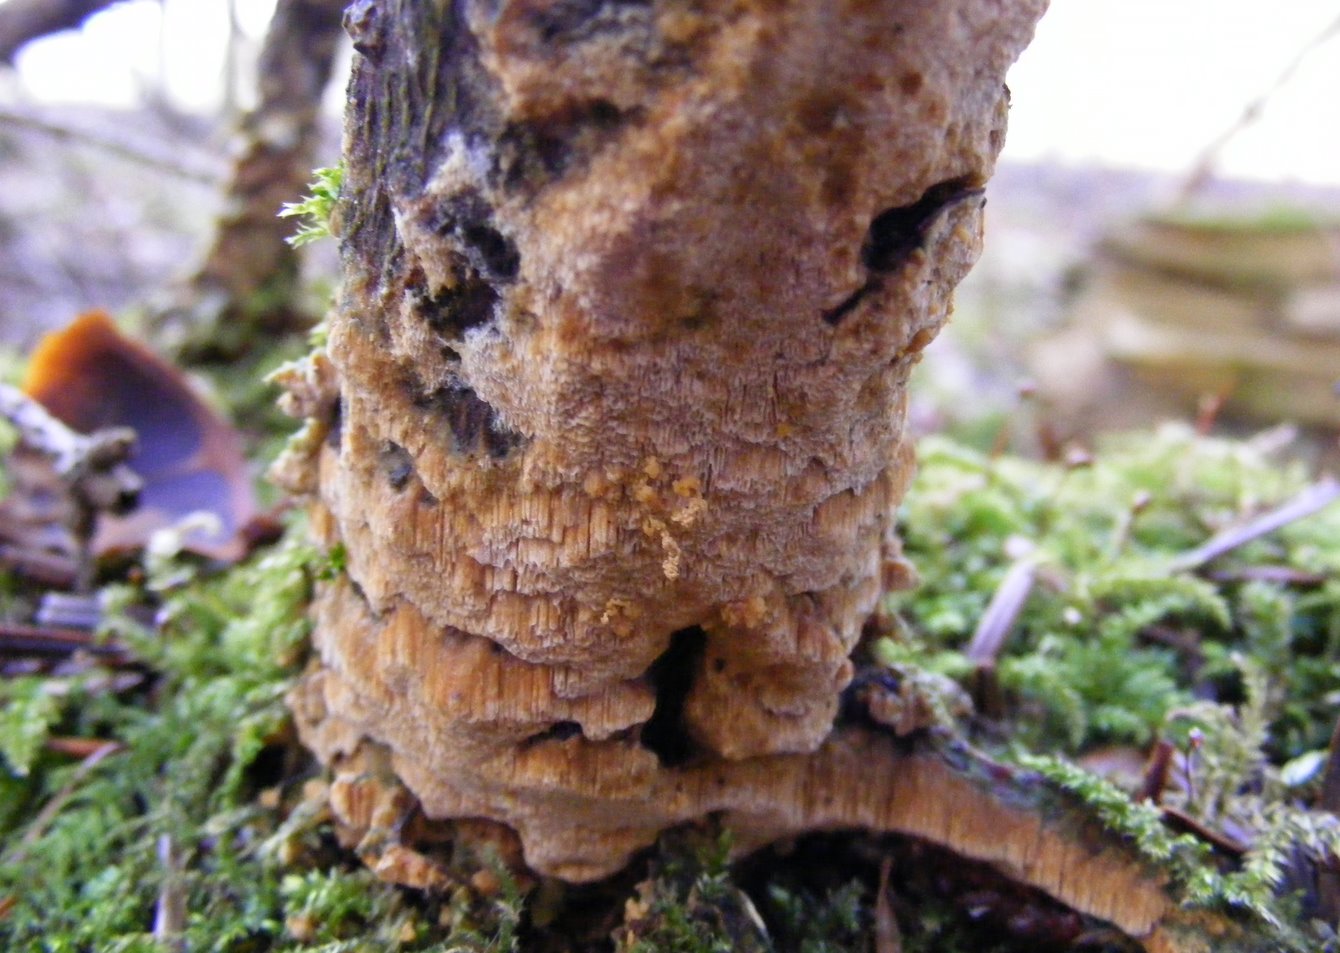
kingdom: Fungi
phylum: Basidiomycota
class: Agaricomycetes
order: Hymenochaetales
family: Schizoporaceae
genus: Xylodon
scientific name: Xylodon flaviporus
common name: gulporet tandsvamp
